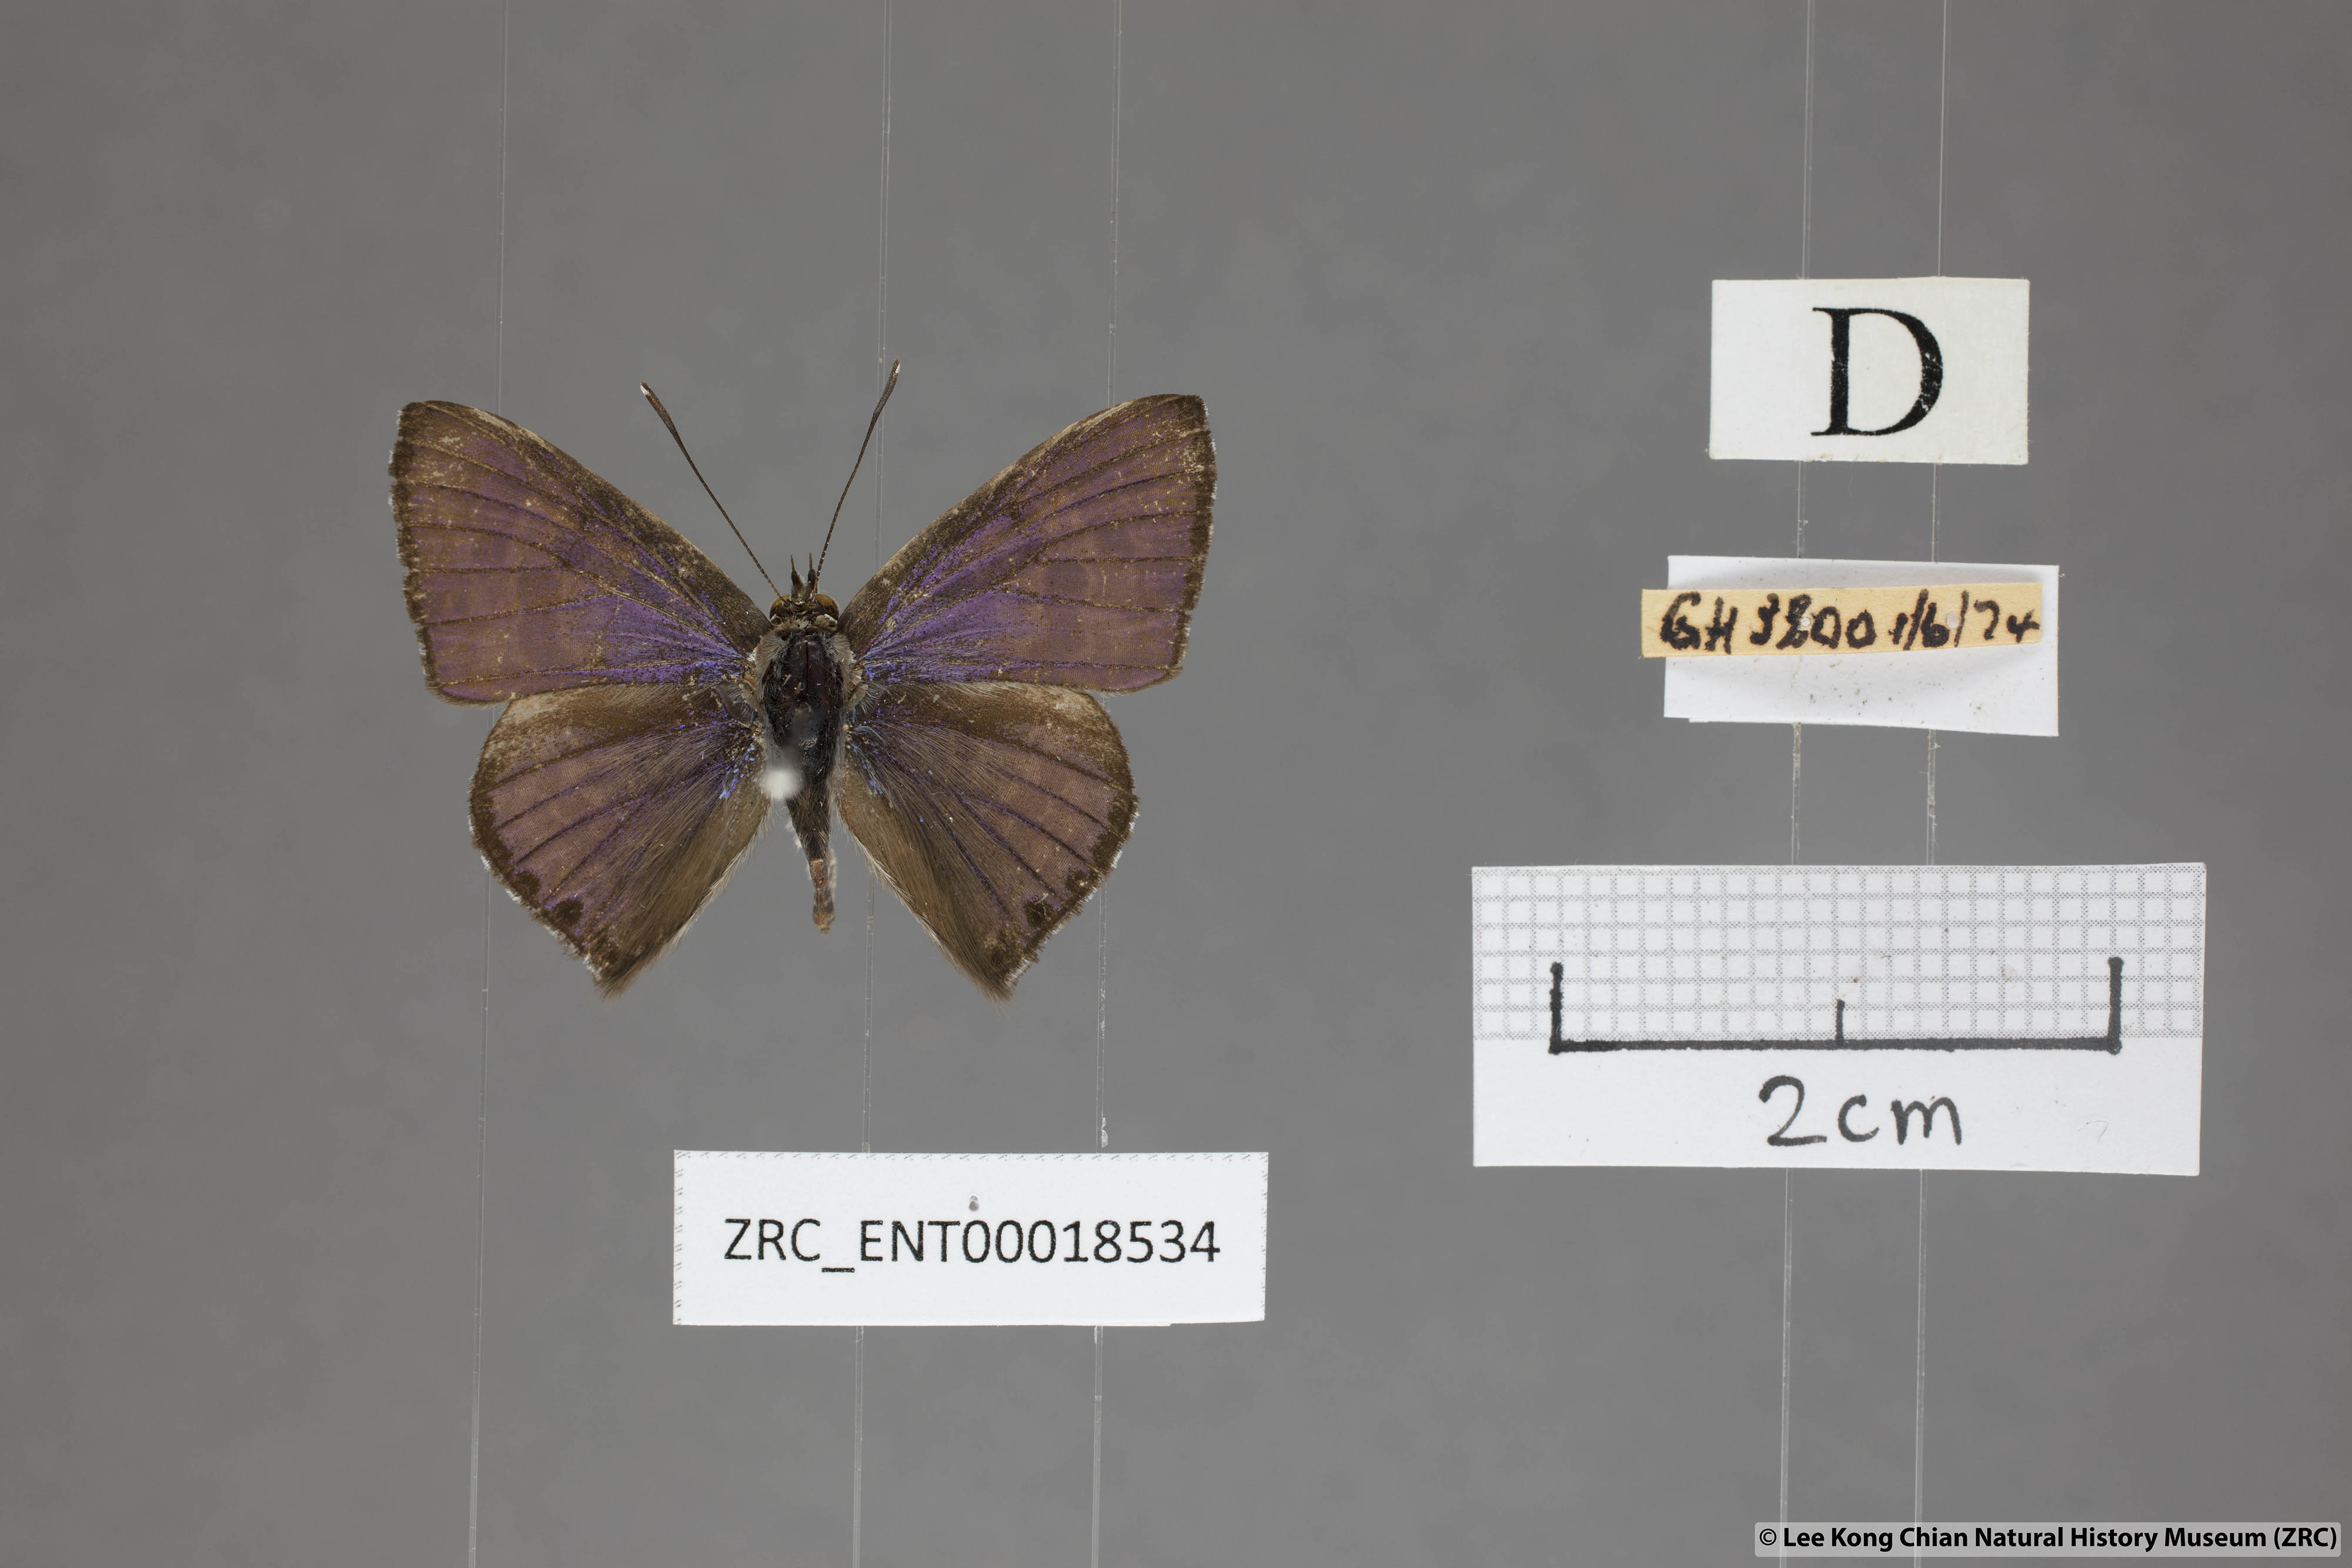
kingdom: Animalia
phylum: Arthropoda
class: Insecta
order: Lepidoptera
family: Lycaenidae
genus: Niphanda
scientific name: Niphanda tessellata
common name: Large pointed pierrot
